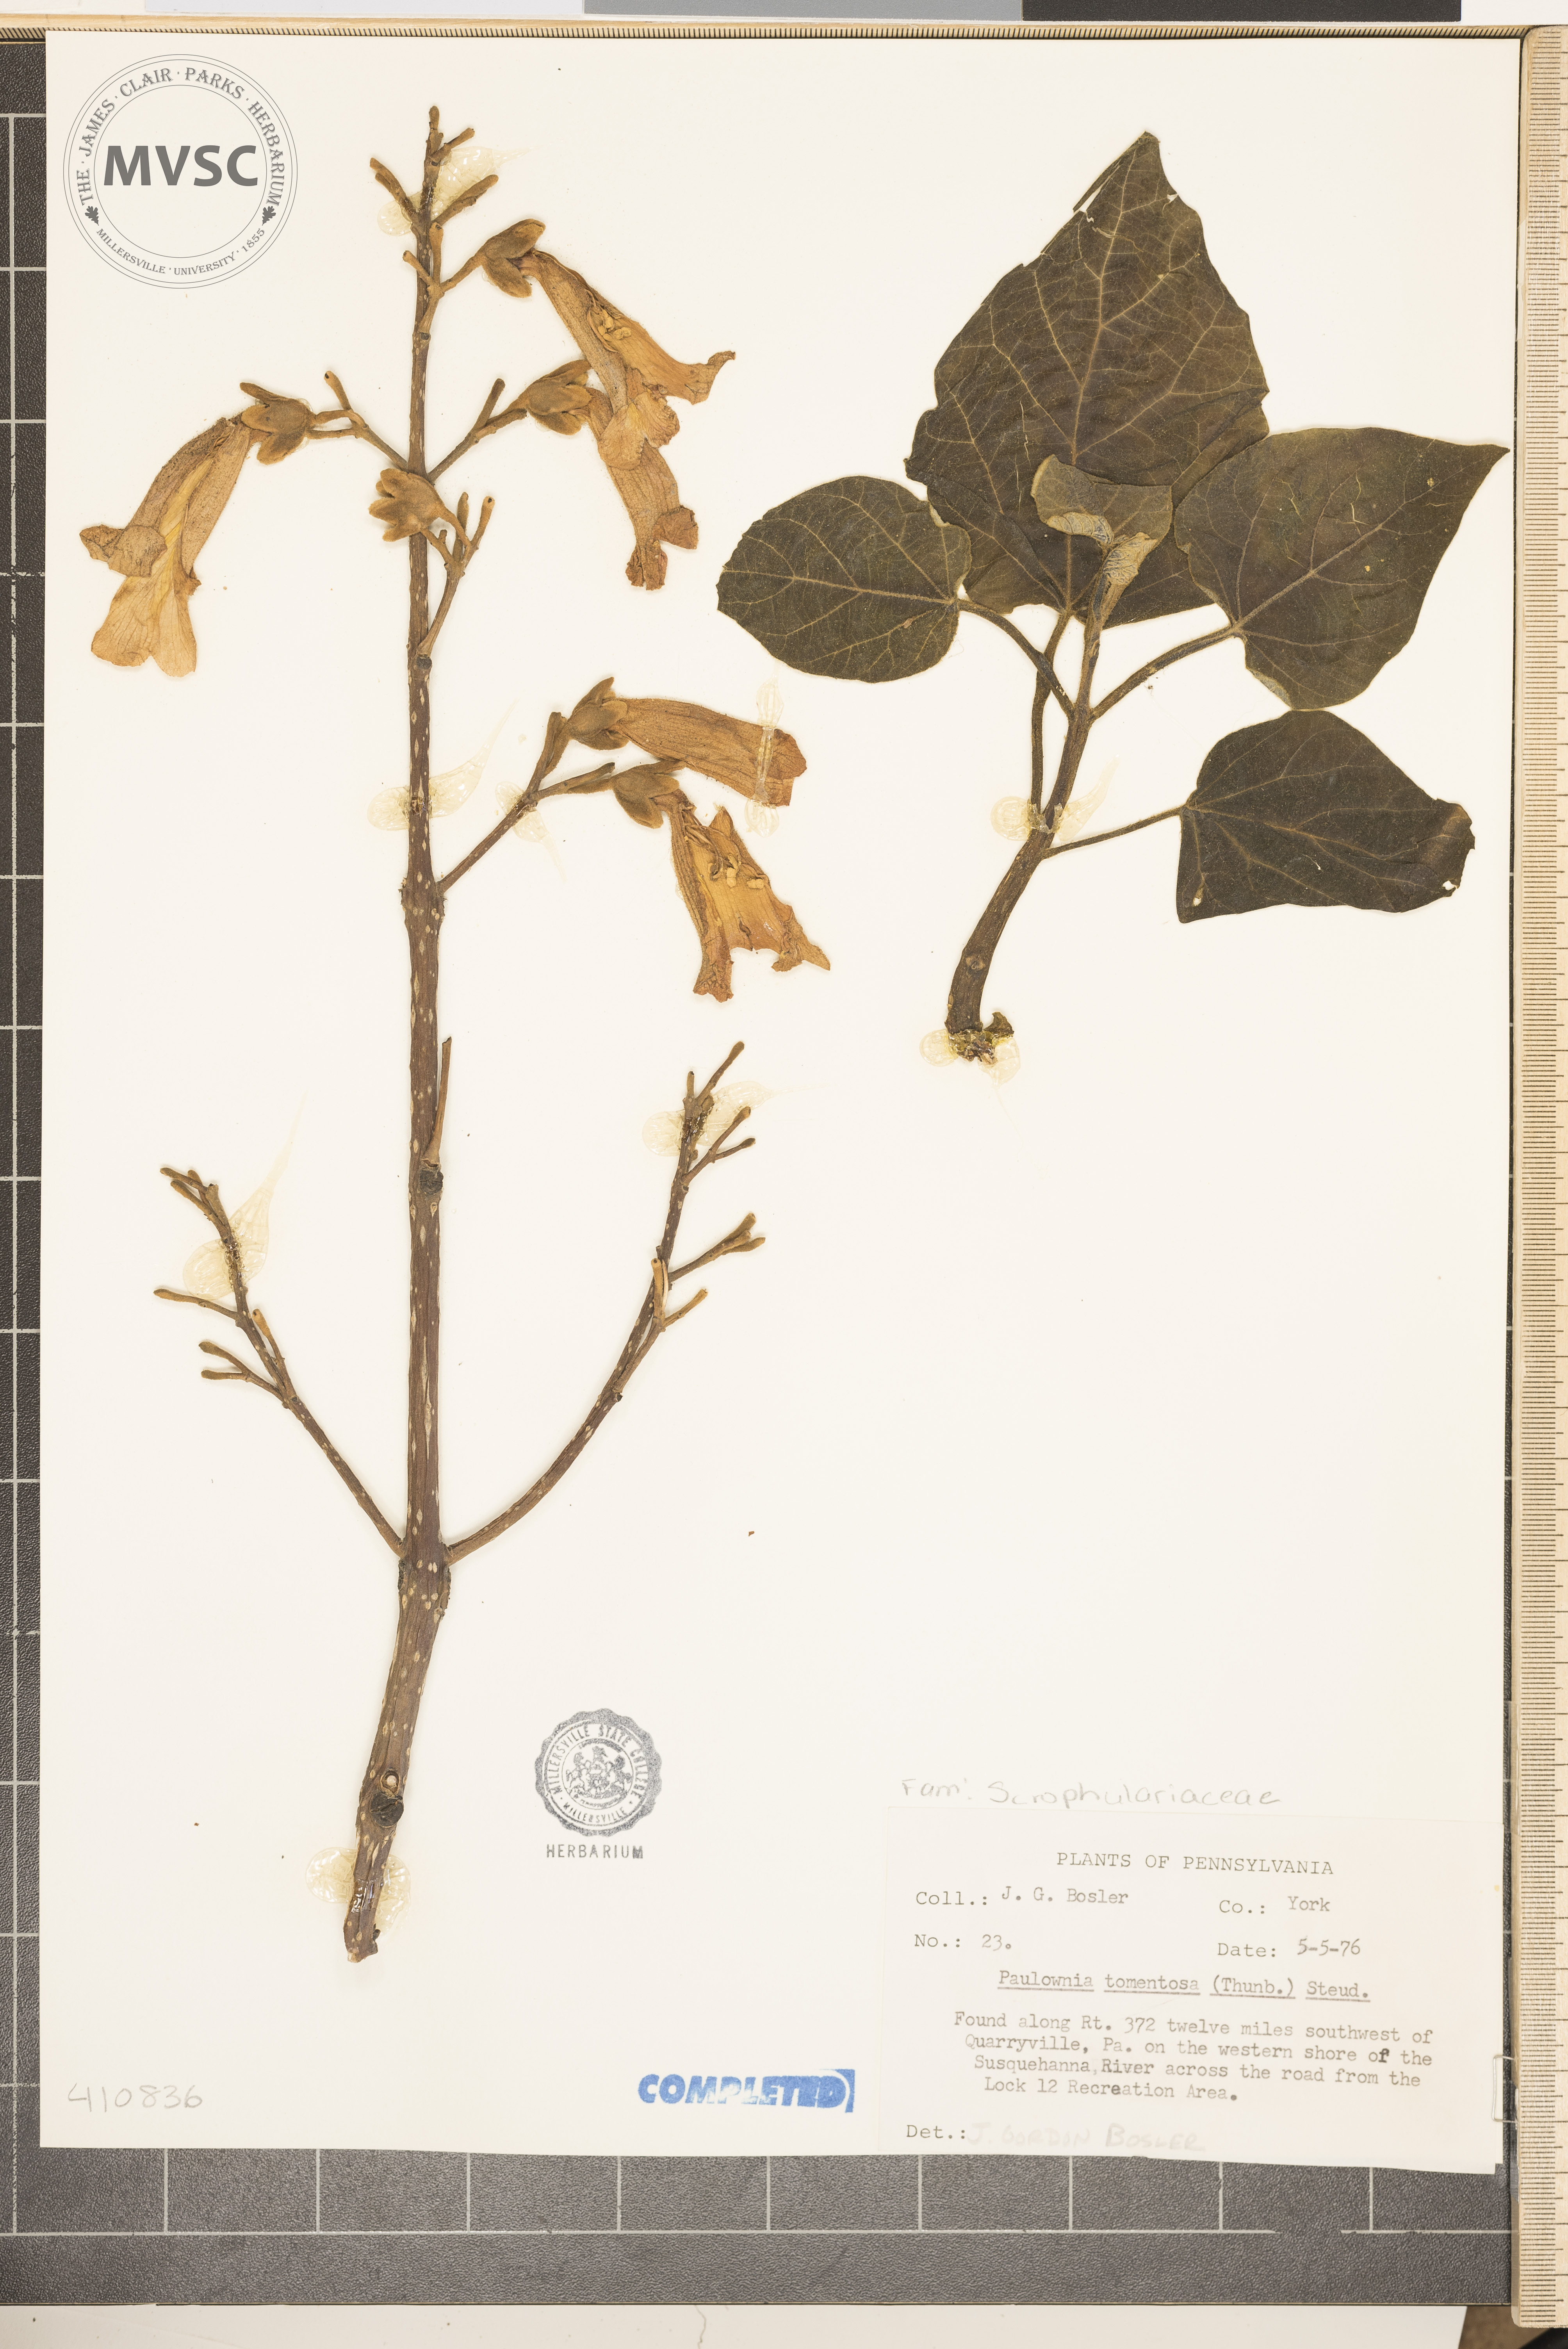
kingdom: Plantae
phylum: Tracheophyta
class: Magnoliopsida
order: Lamiales
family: Paulowniaceae
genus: Paulownia
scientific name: Paulownia tomentosa
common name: Foxglove-tree
